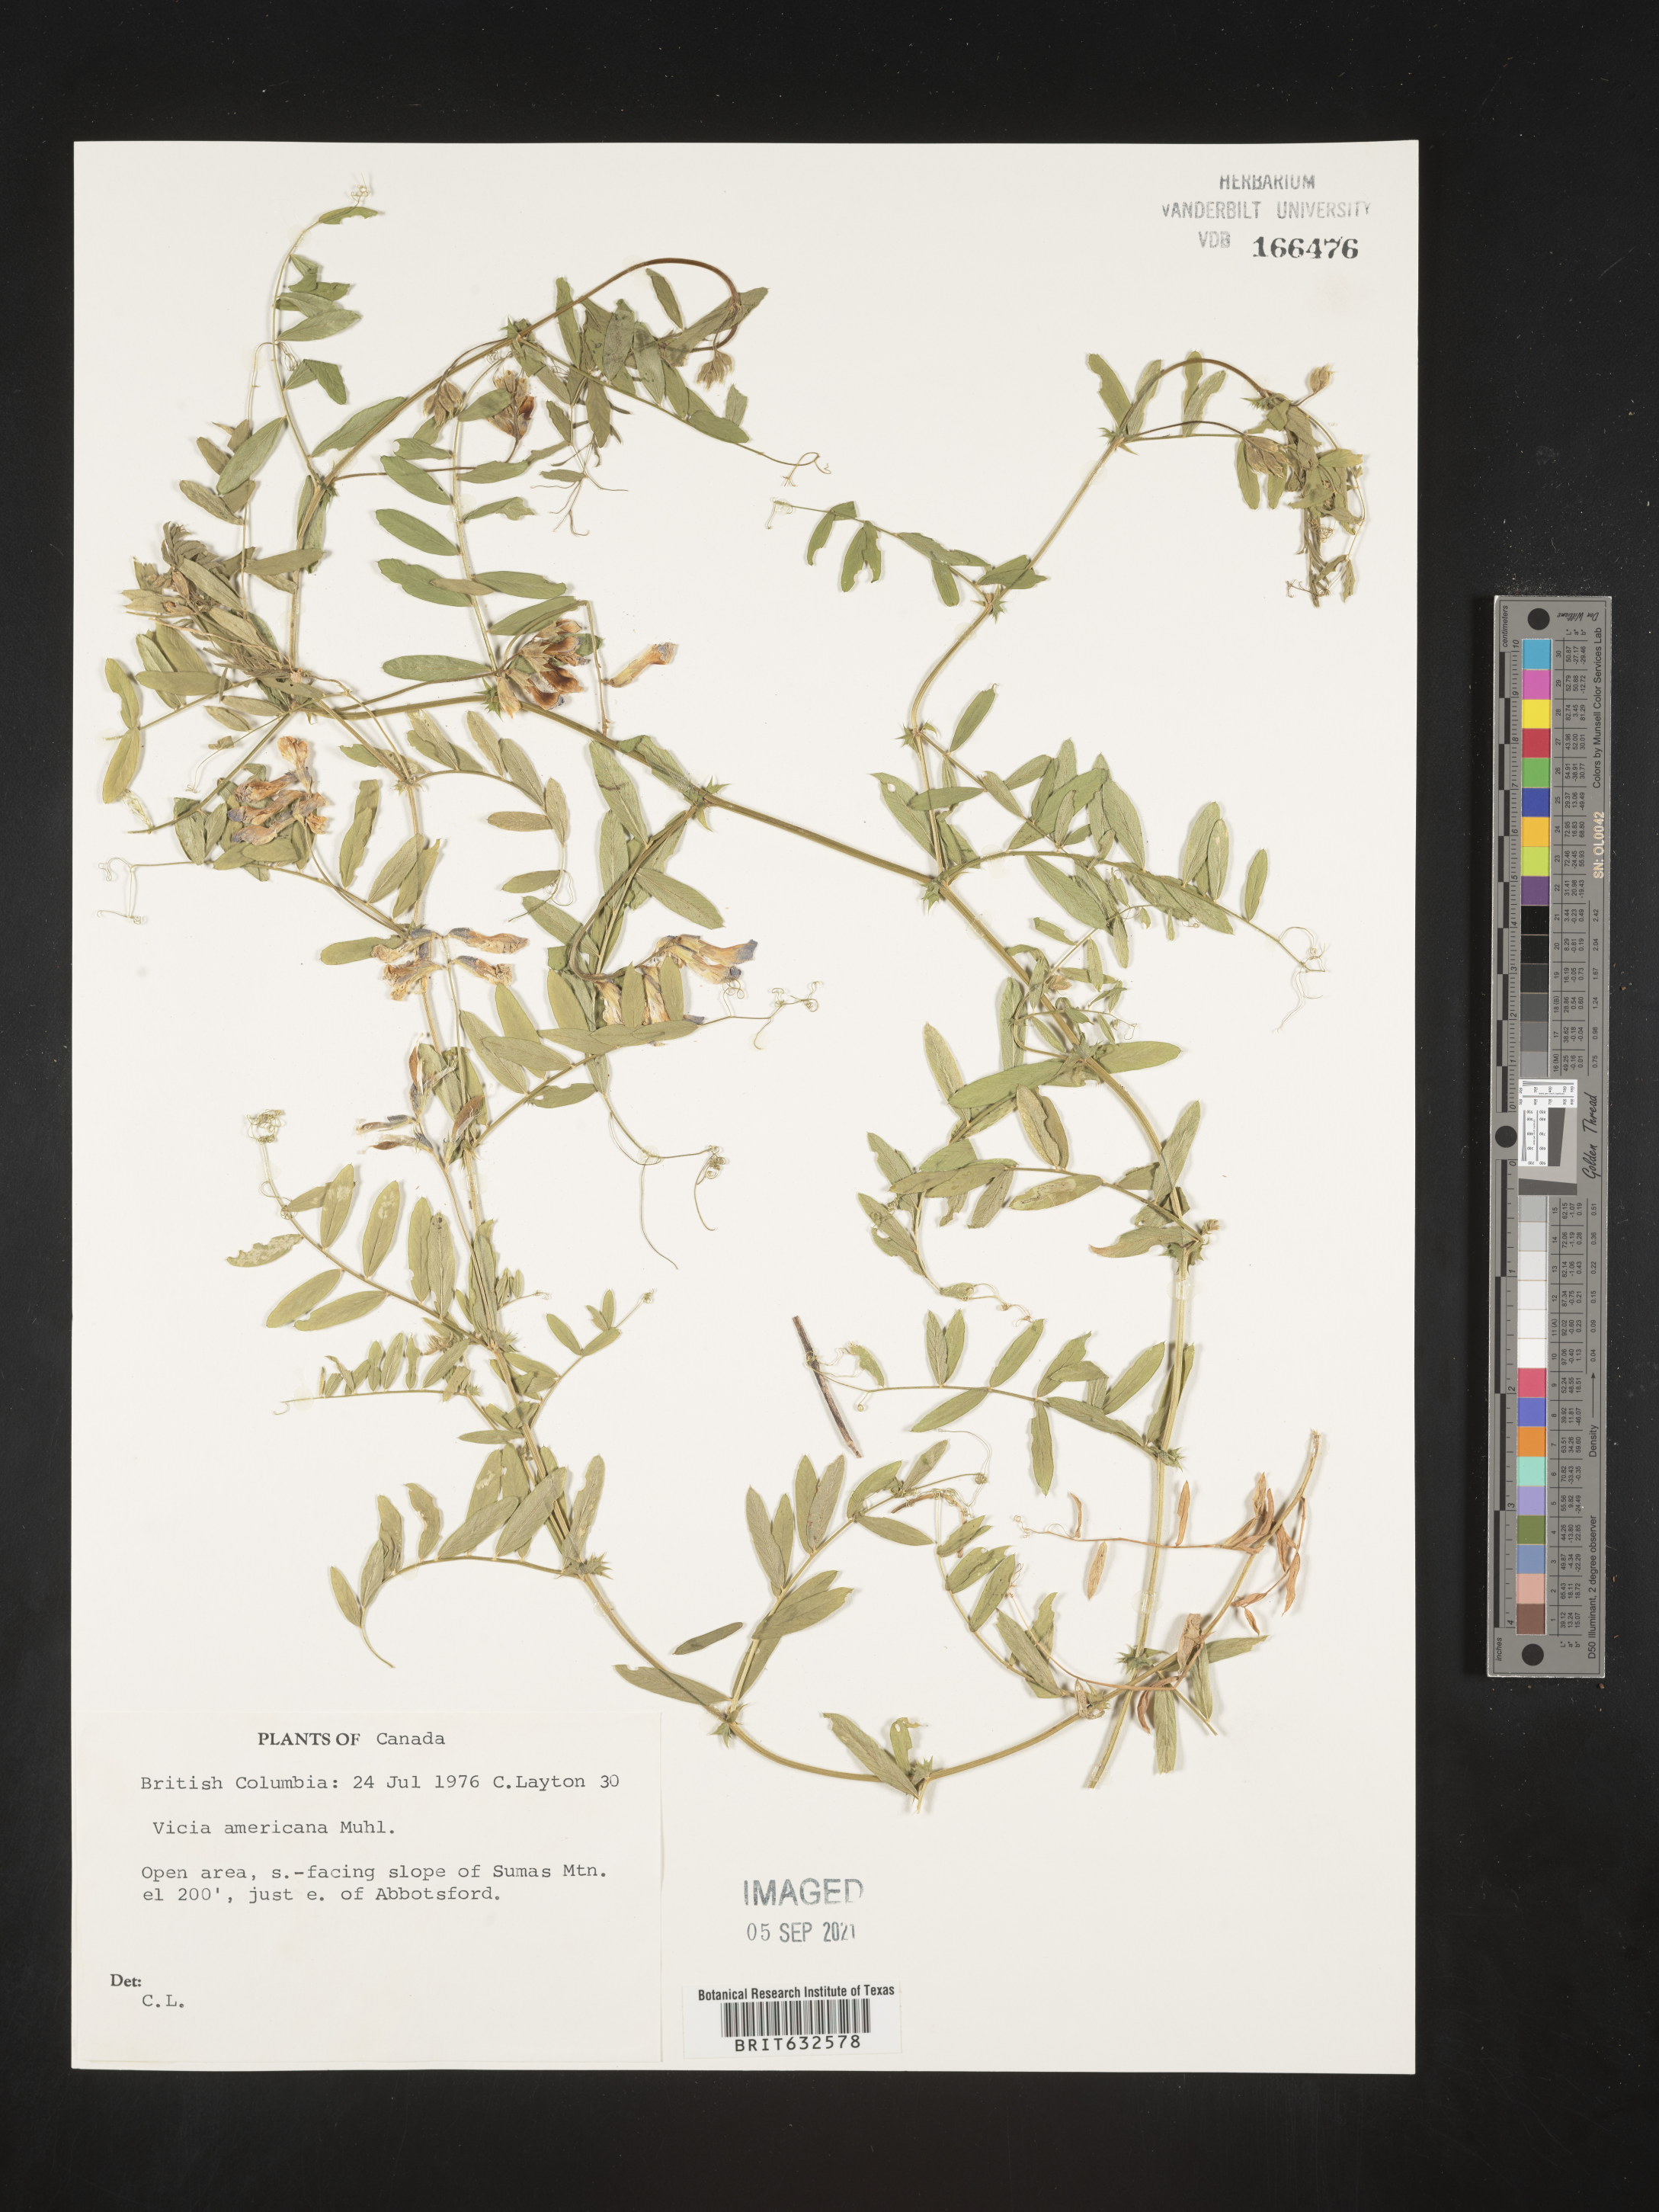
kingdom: Plantae
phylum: Tracheophyta
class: Magnoliopsida
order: Fabales
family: Fabaceae
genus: Vicia
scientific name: Vicia
